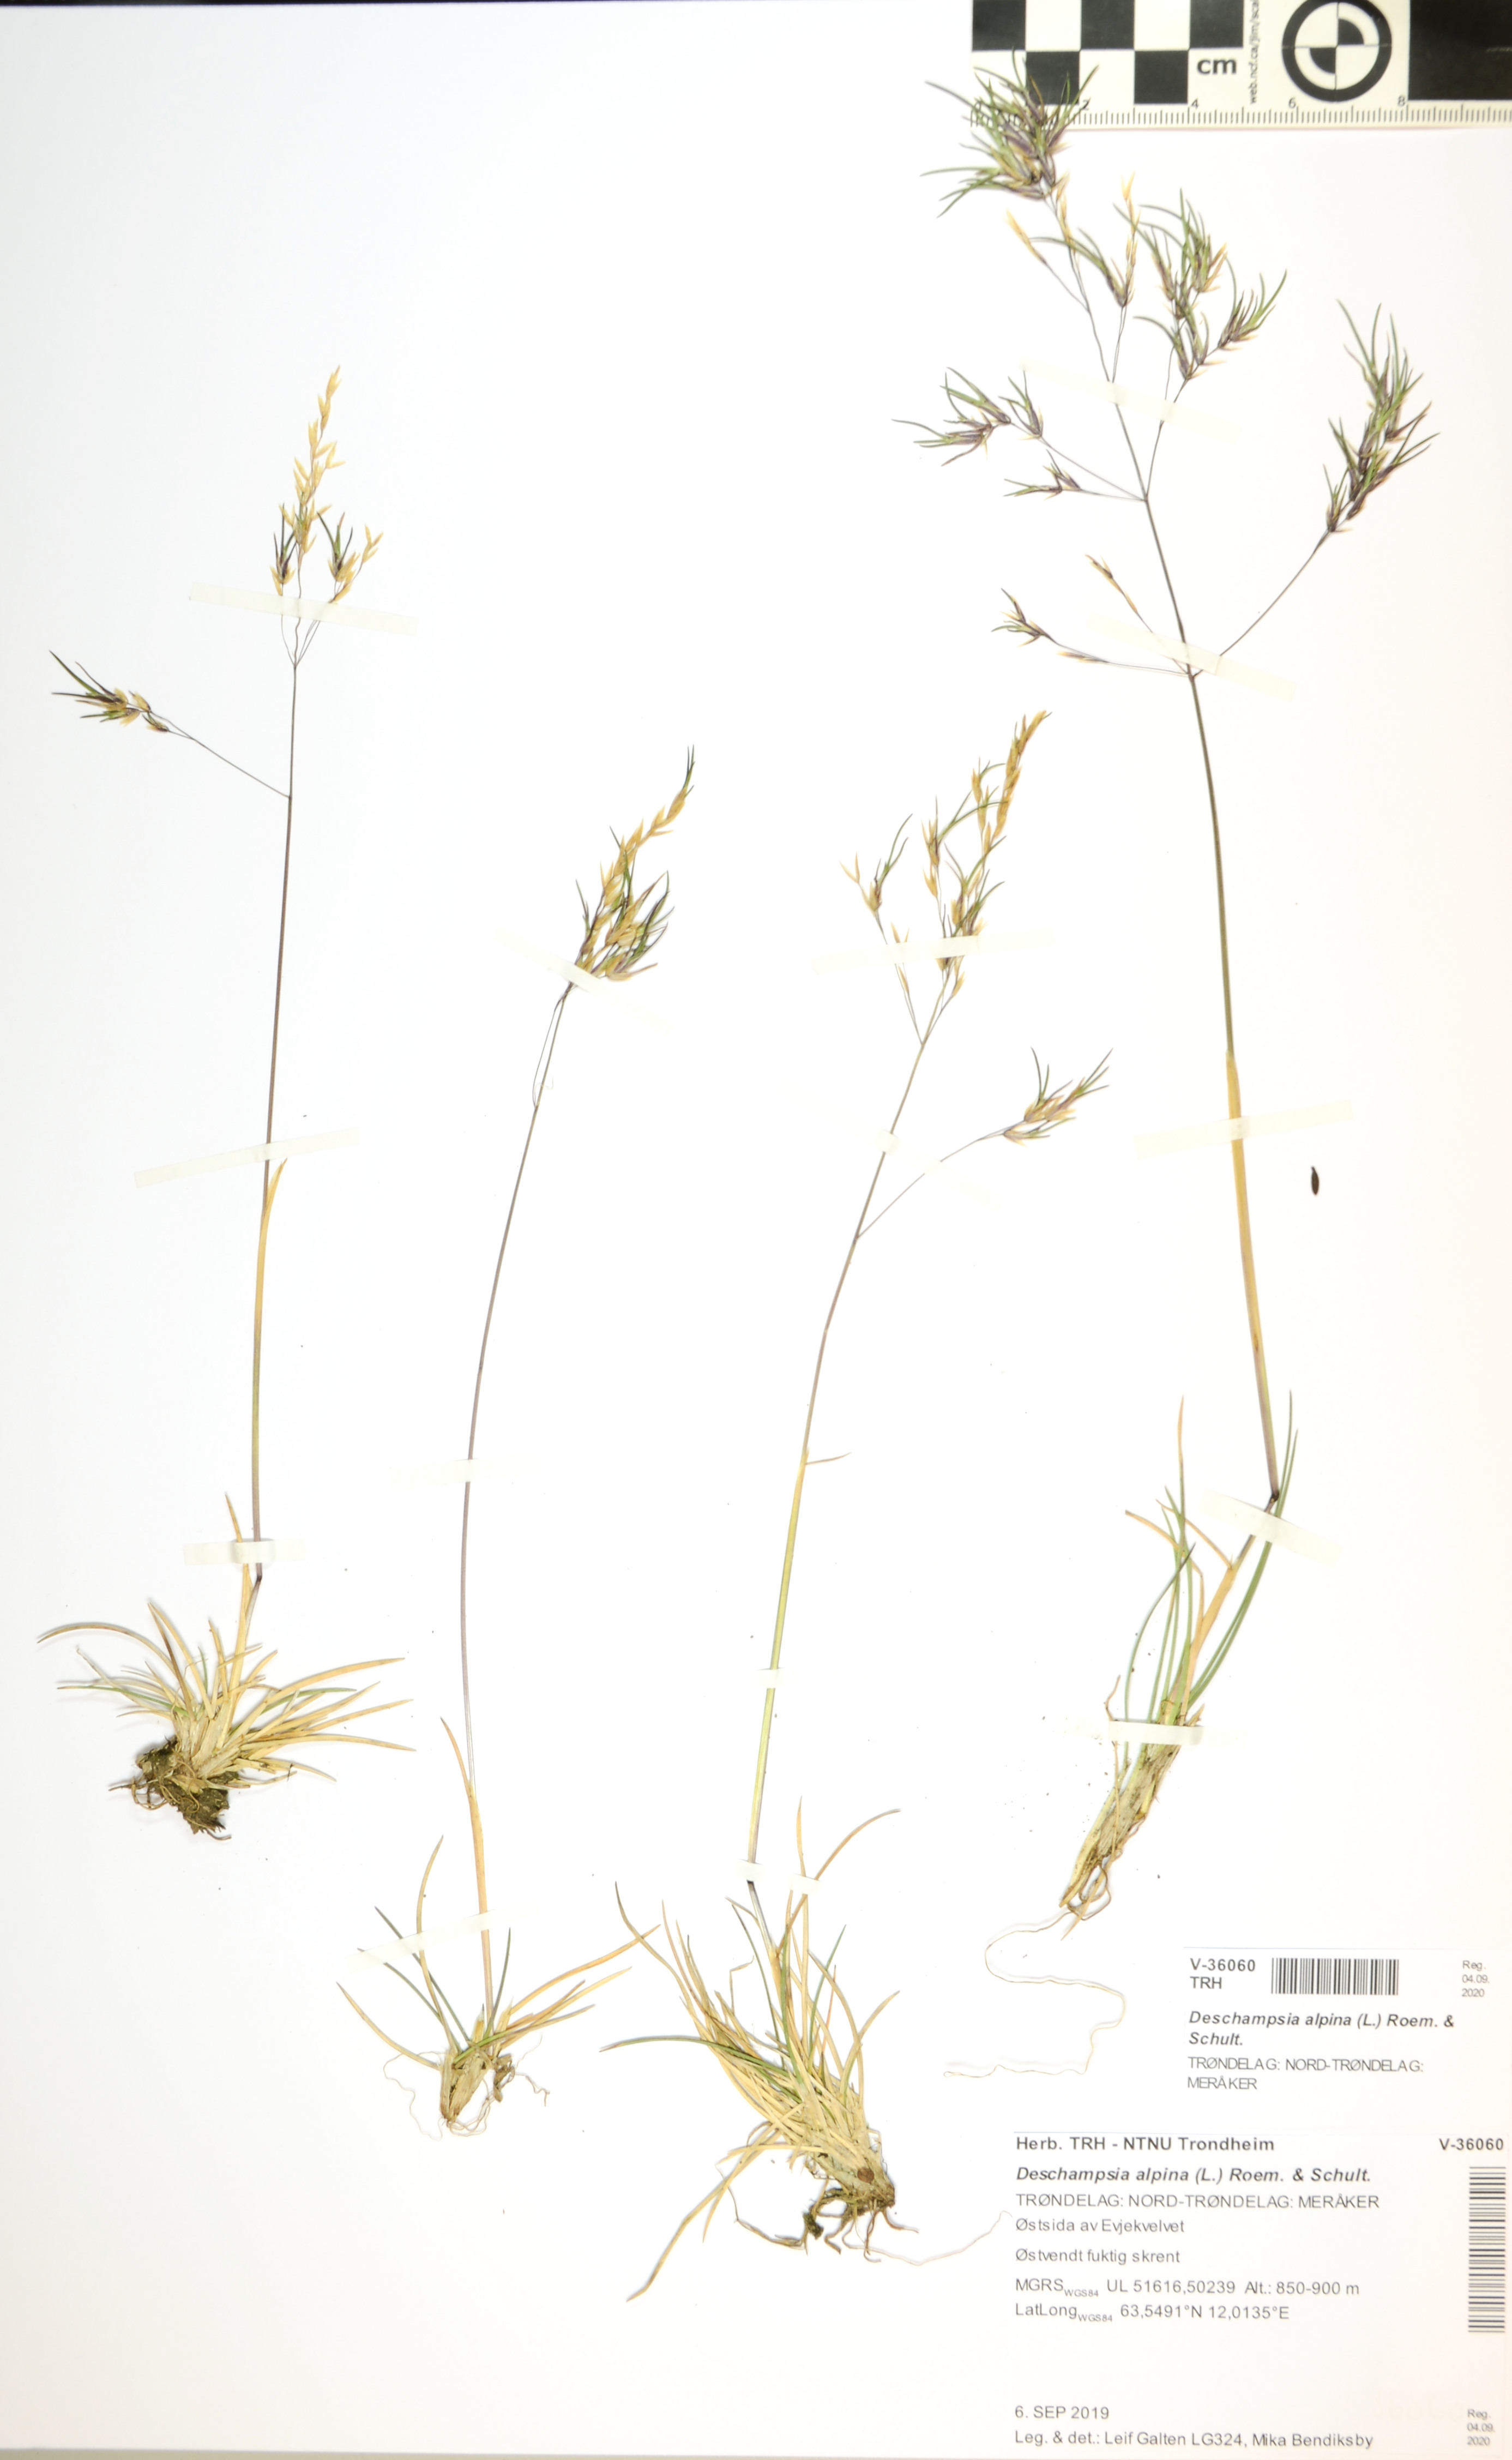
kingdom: Plantae
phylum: Tracheophyta
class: Liliopsida
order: Poales
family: Poaceae
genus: Deschampsia
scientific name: Deschampsia cespitosa
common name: Tufted hair-grass
